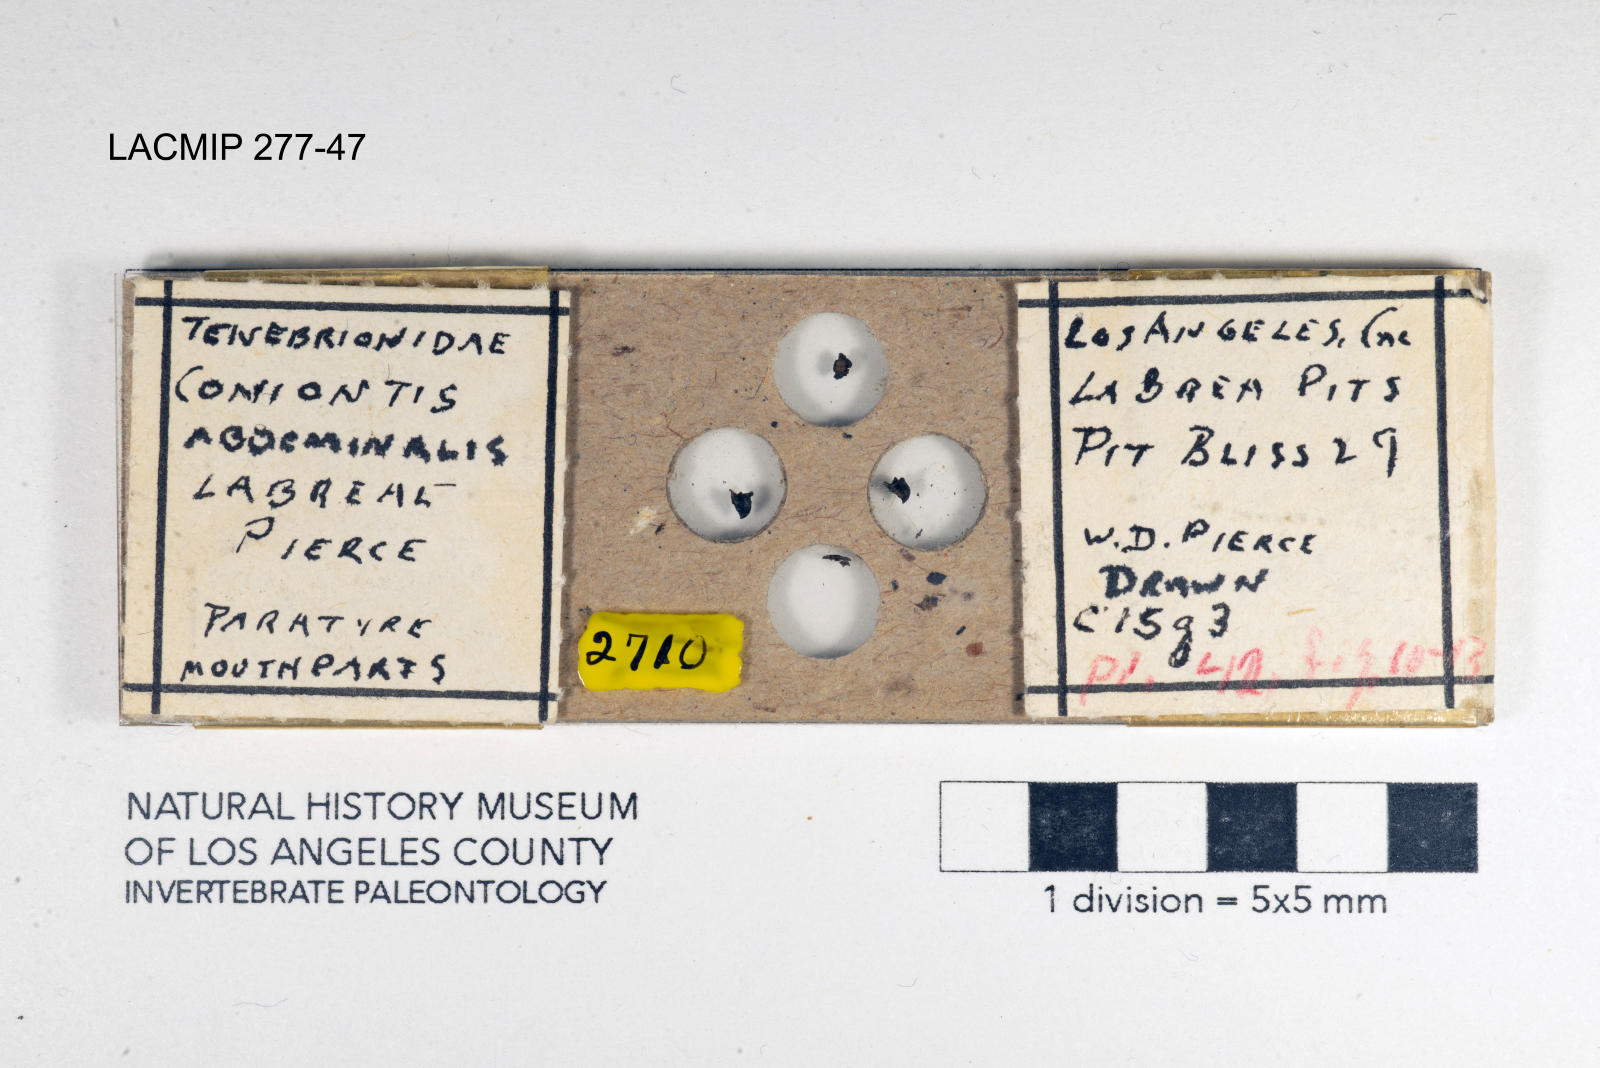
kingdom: Animalia
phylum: Arthropoda
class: Insecta
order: Coleoptera
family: Tenebrionidae
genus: Coniontis
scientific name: Coniontis abdominalis
